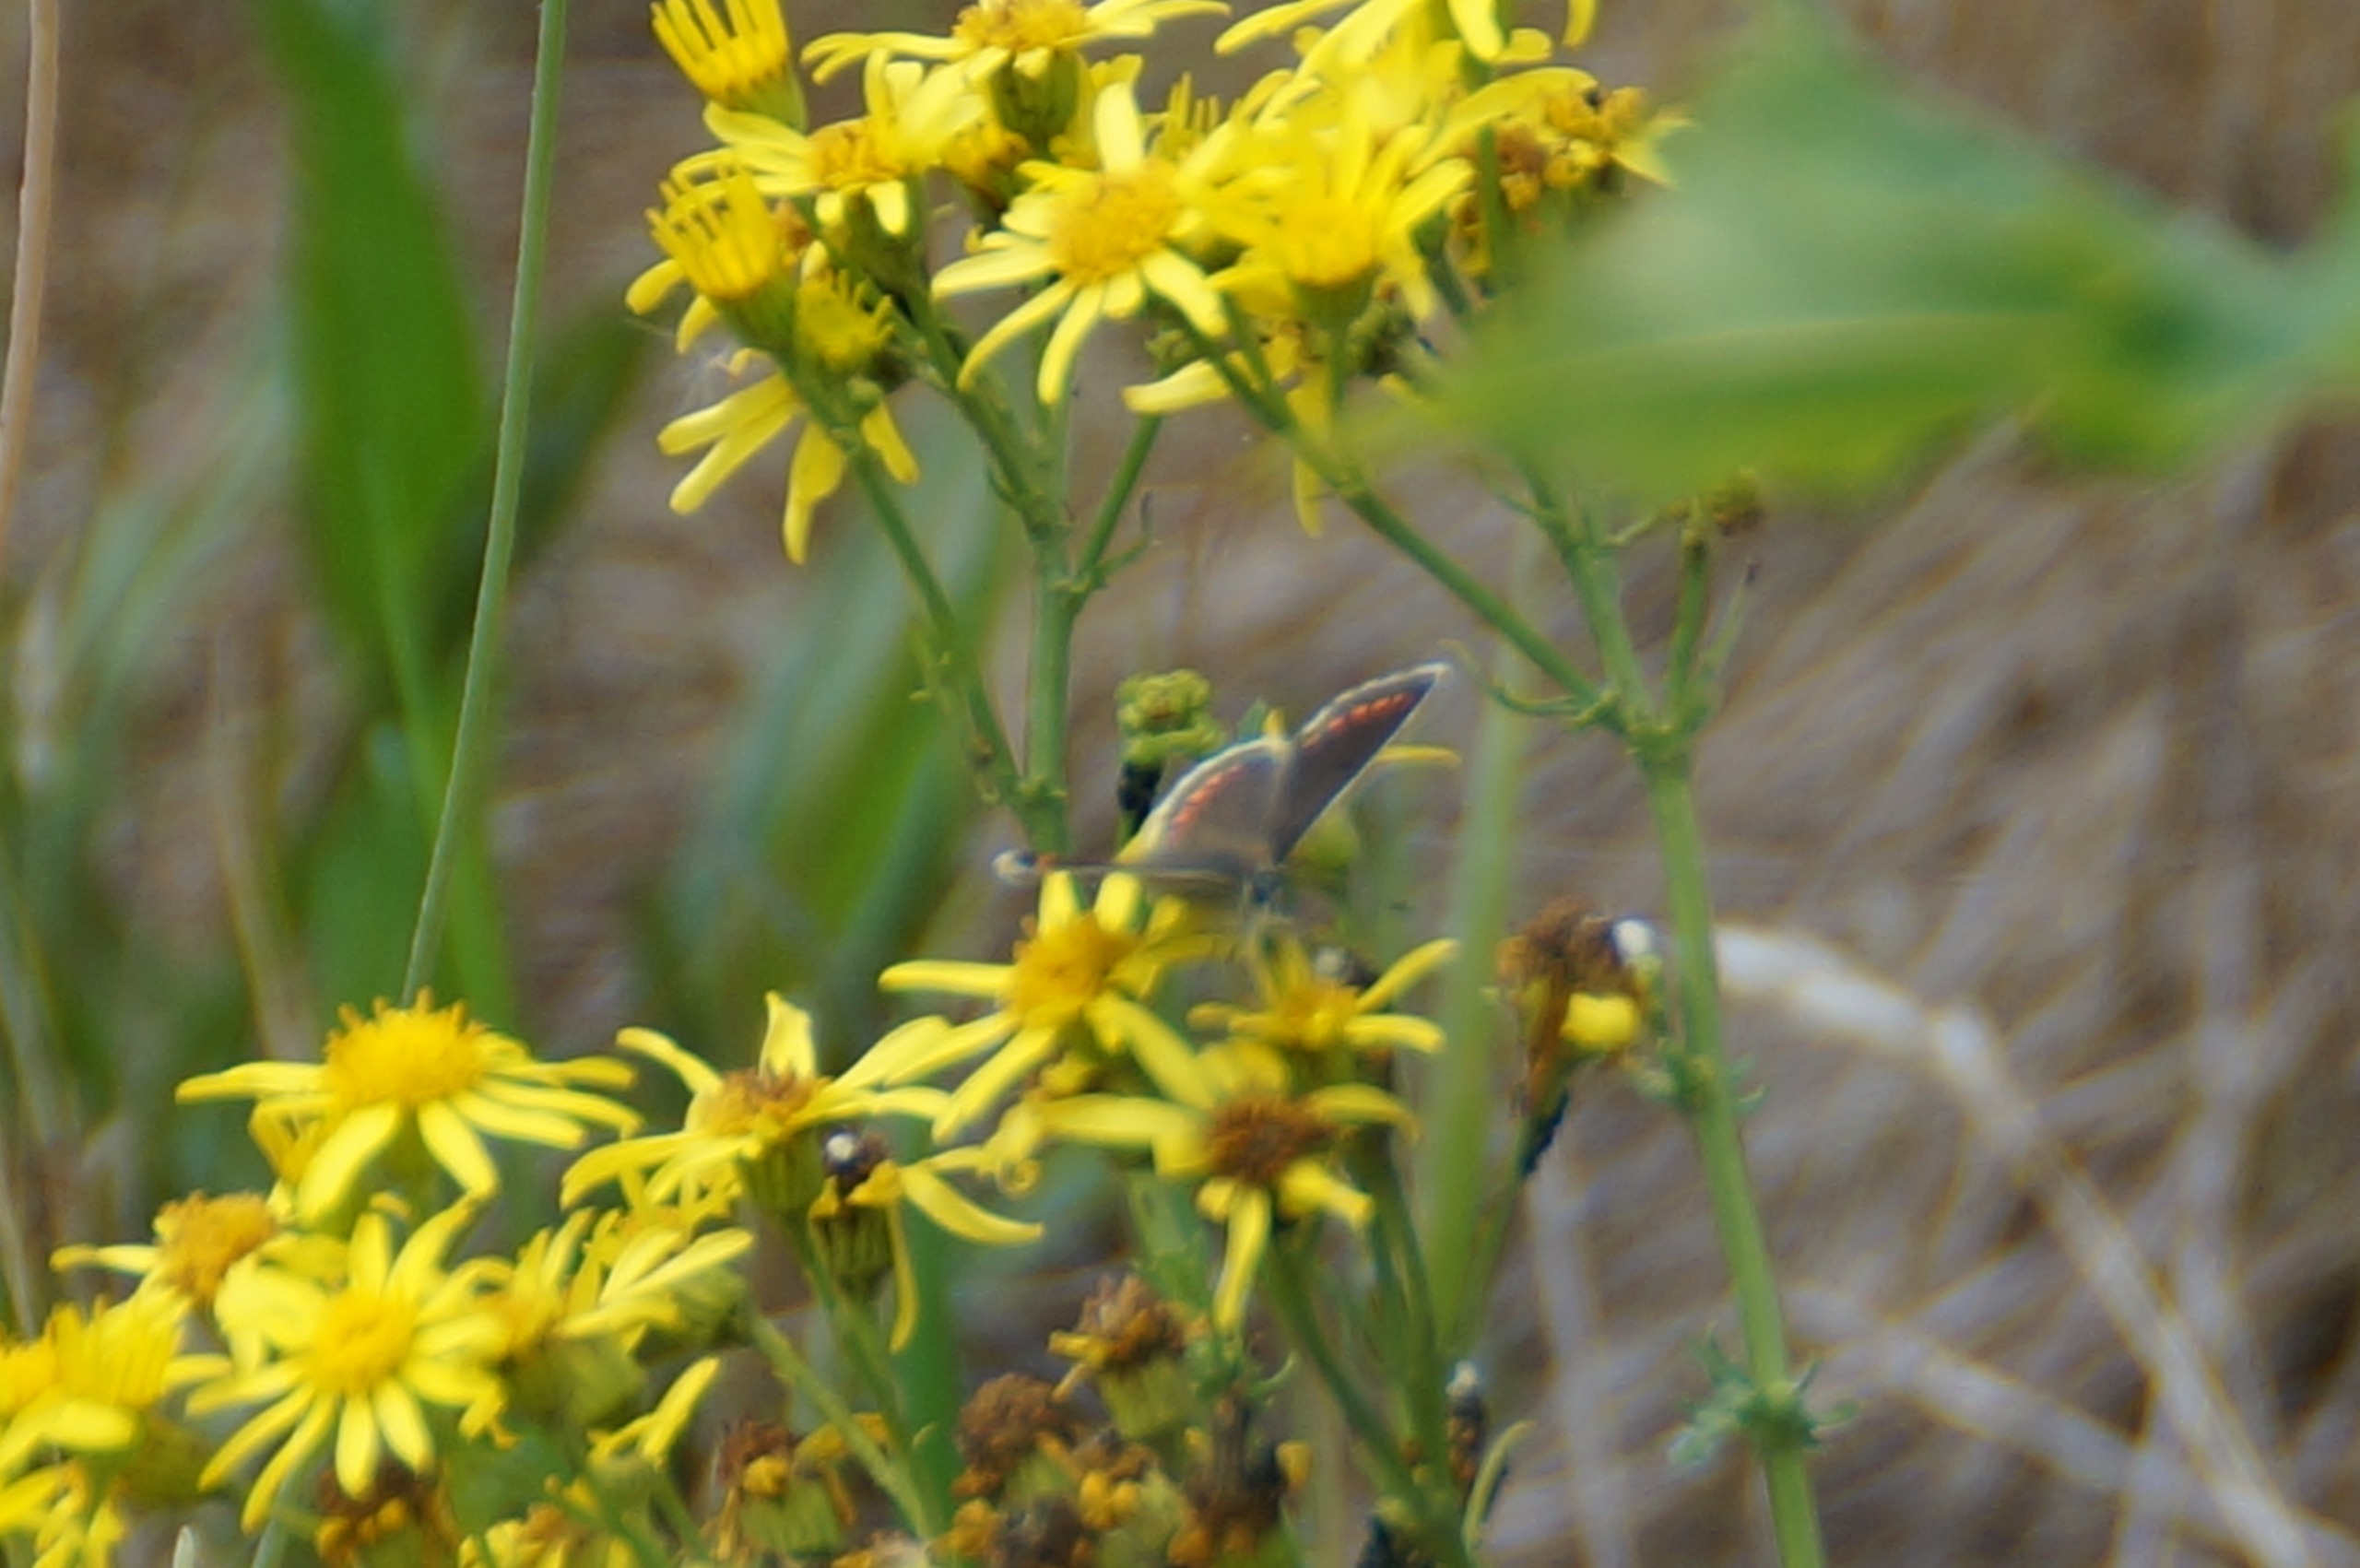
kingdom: Animalia
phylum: Arthropoda
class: Insecta
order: Lepidoptera
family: Lycaenidae
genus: Aricia
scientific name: Aricia agestis
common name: Rødplettet blåfugl
